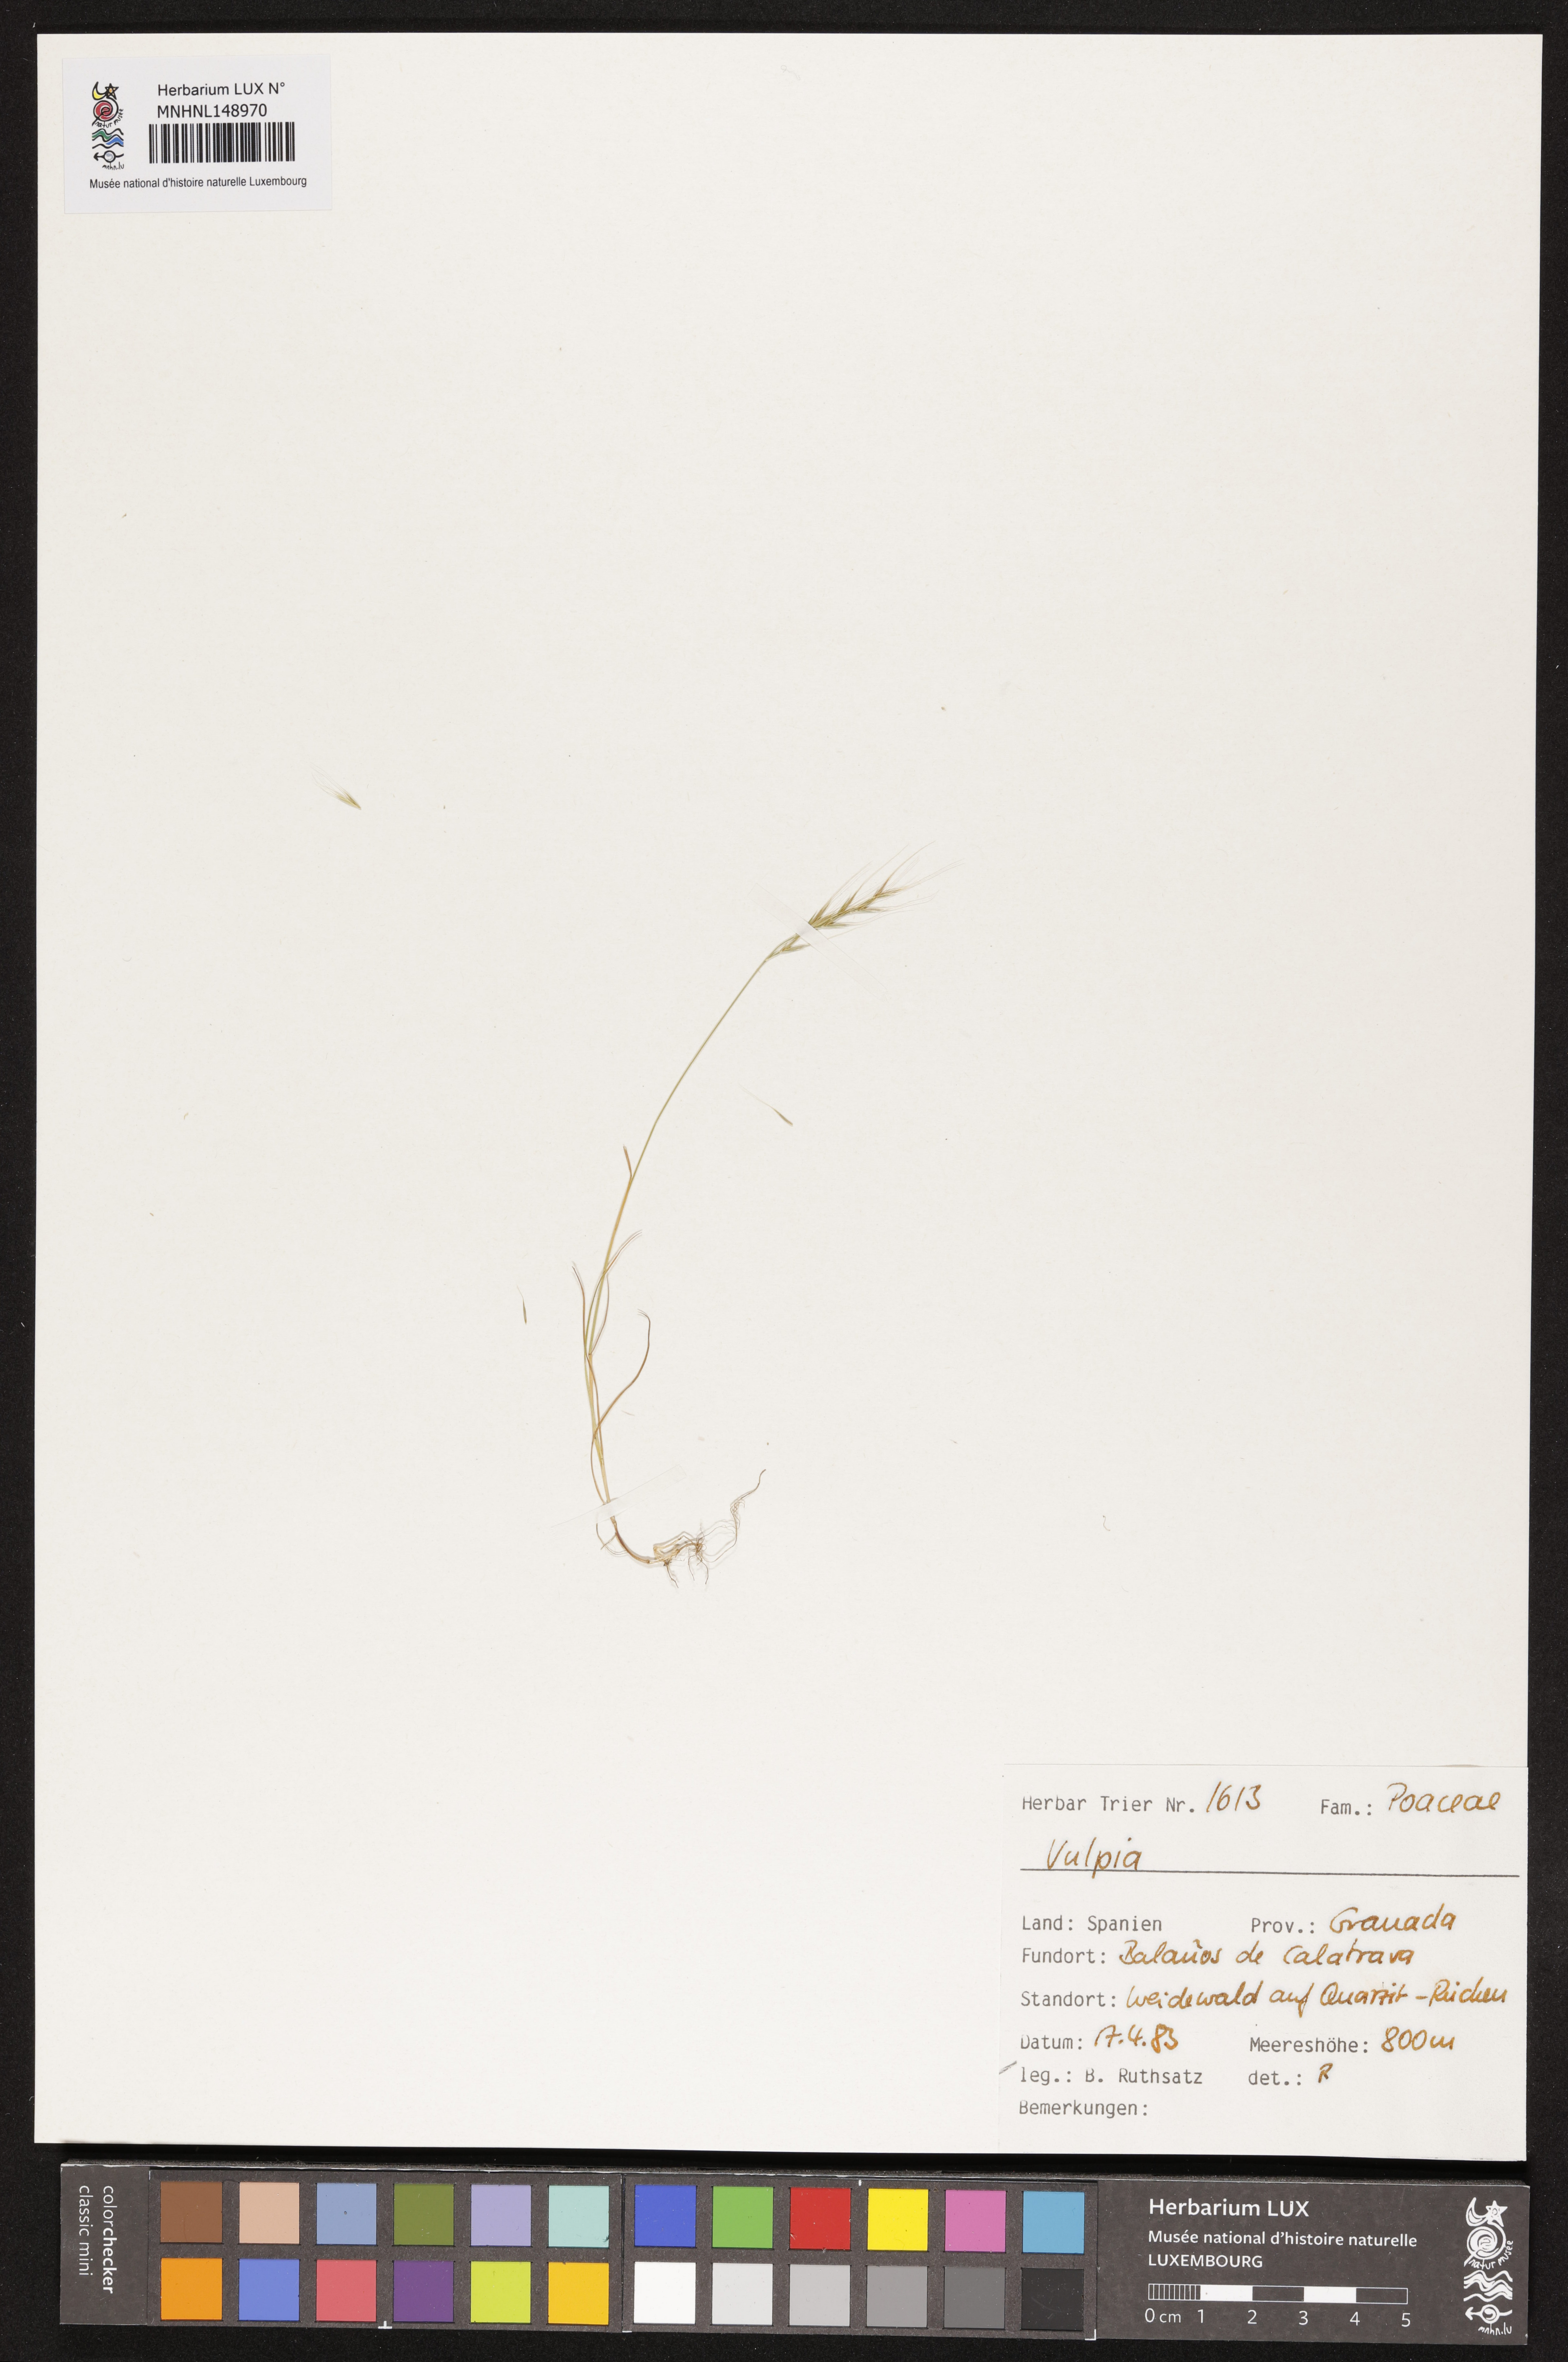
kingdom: Plantae
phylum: Tracheophyta
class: Liliopsida
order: Poales
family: Poaceae
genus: Festuca
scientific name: Festuca
